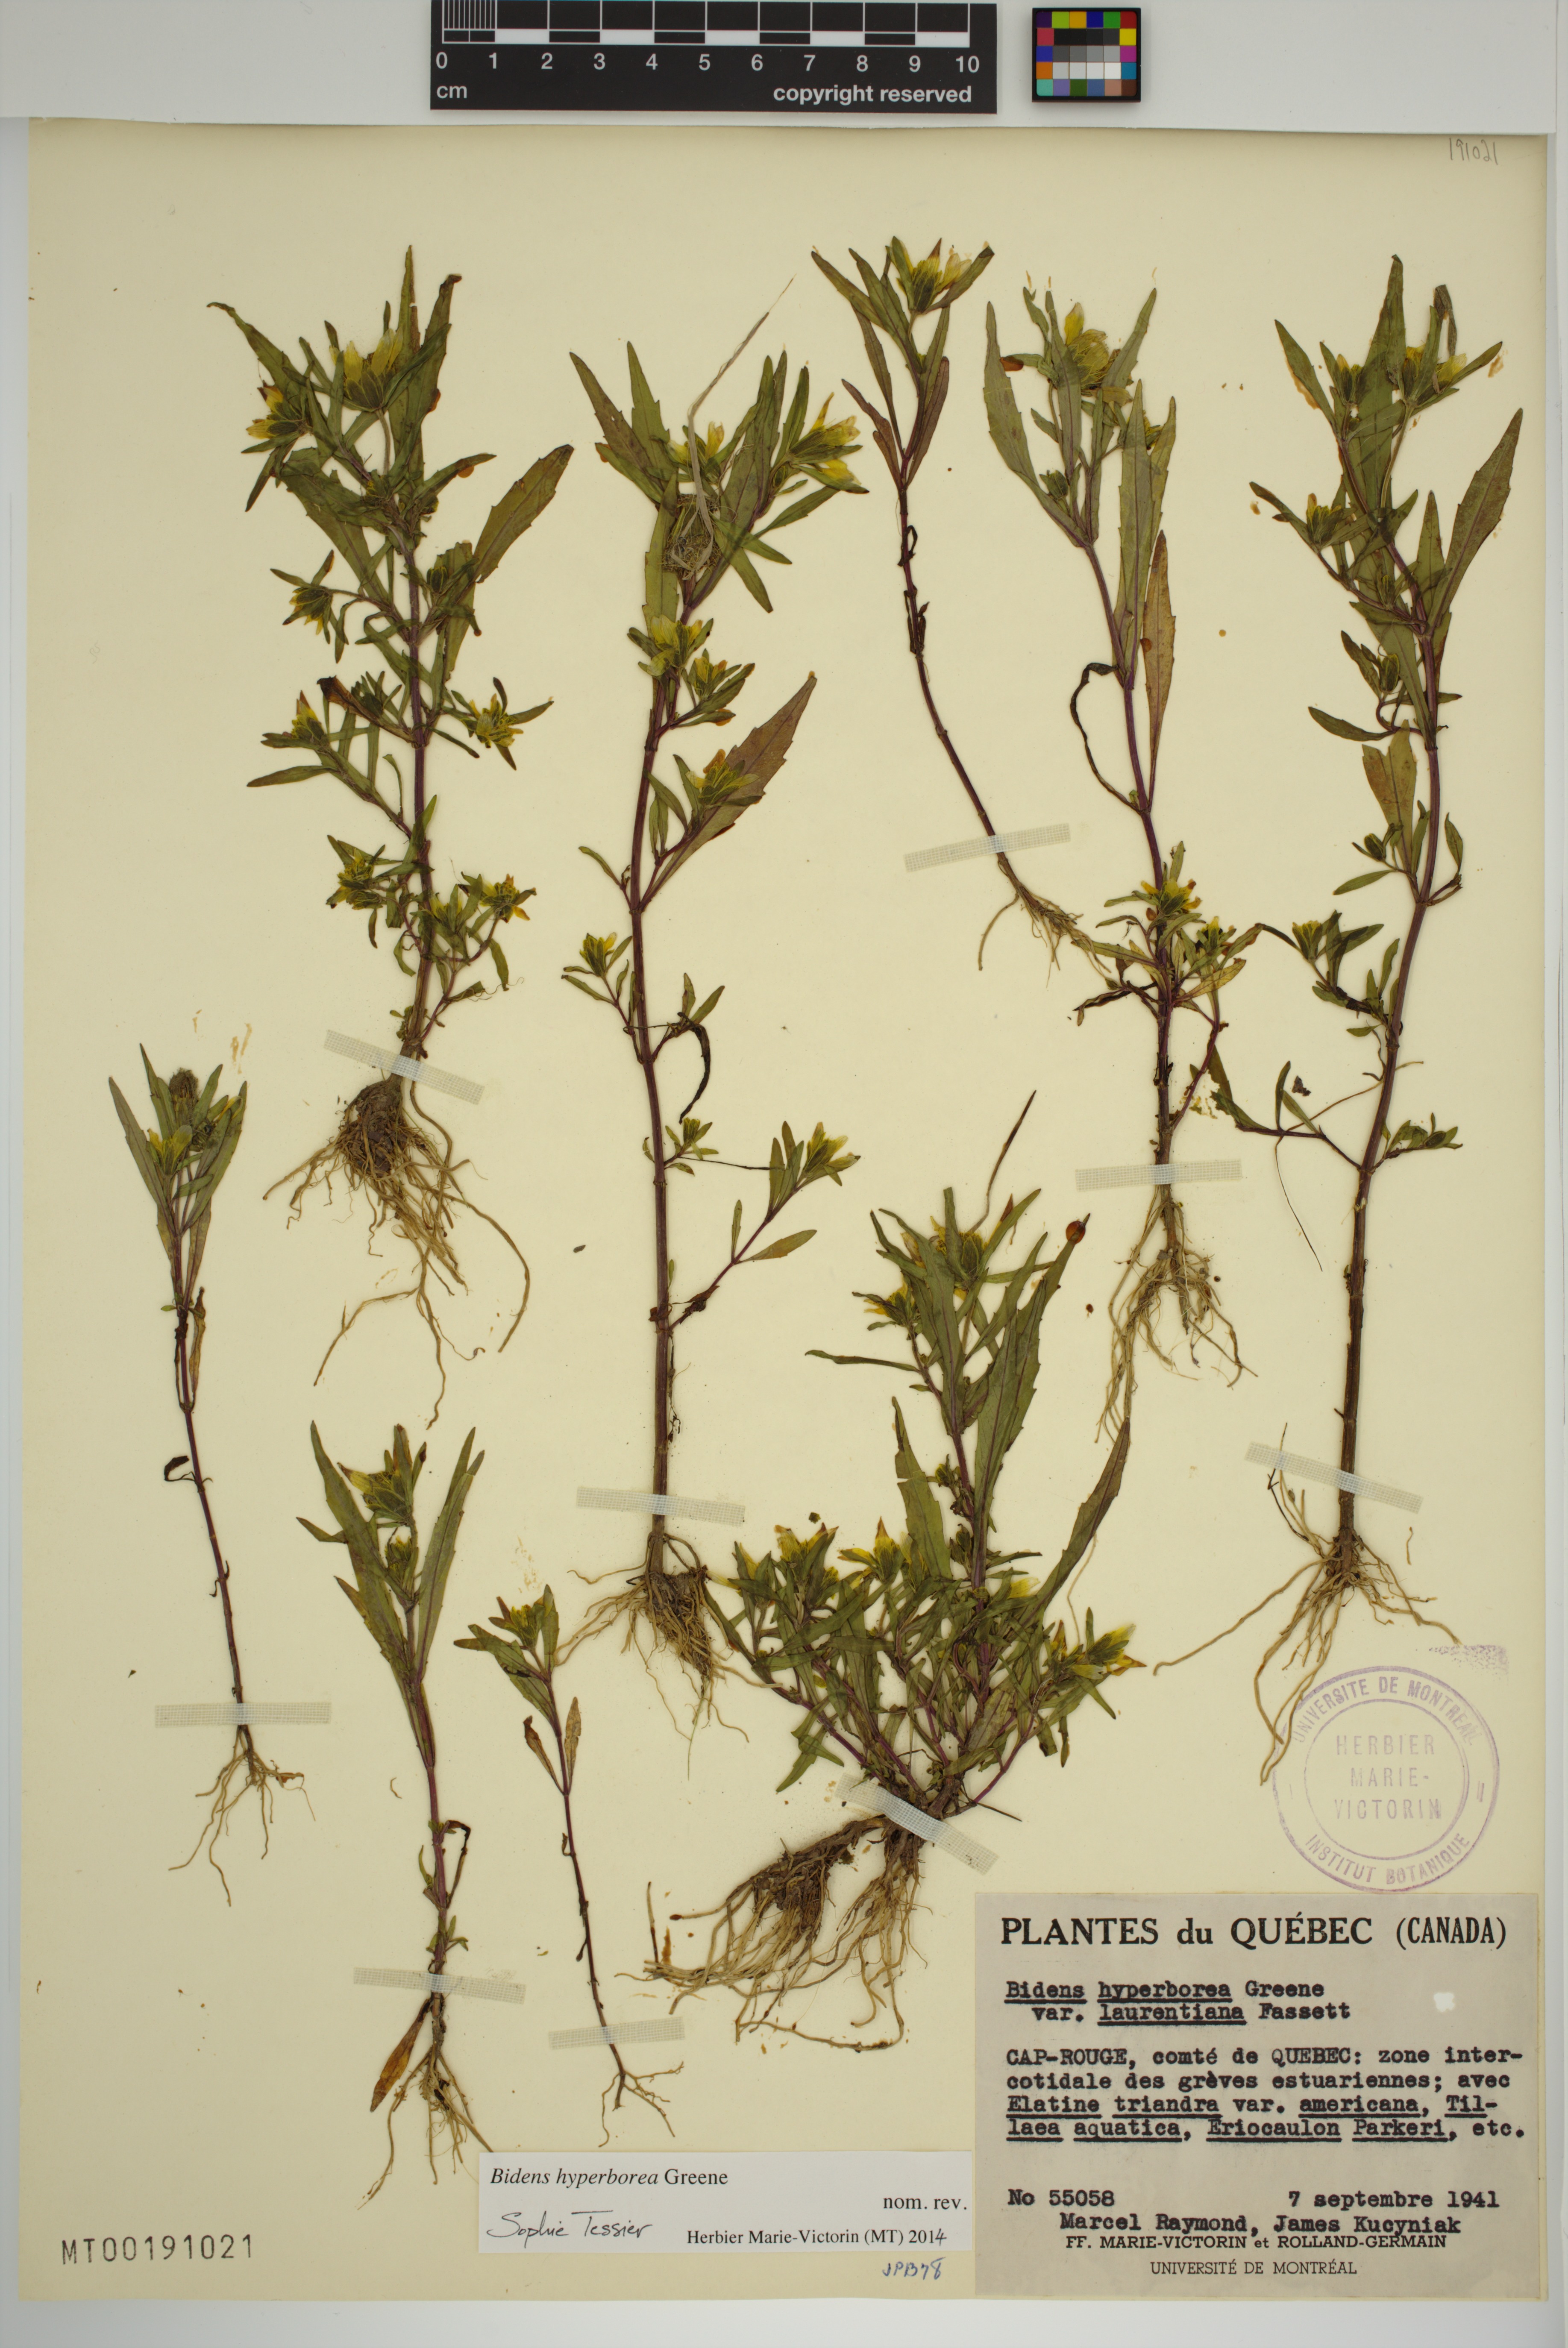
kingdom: Plantae
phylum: Tracheophyta
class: Magnoliopsida
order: Asterales
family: Asteraceae
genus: Bidens
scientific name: Bidens hyperborea
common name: Coastal beggarticks
